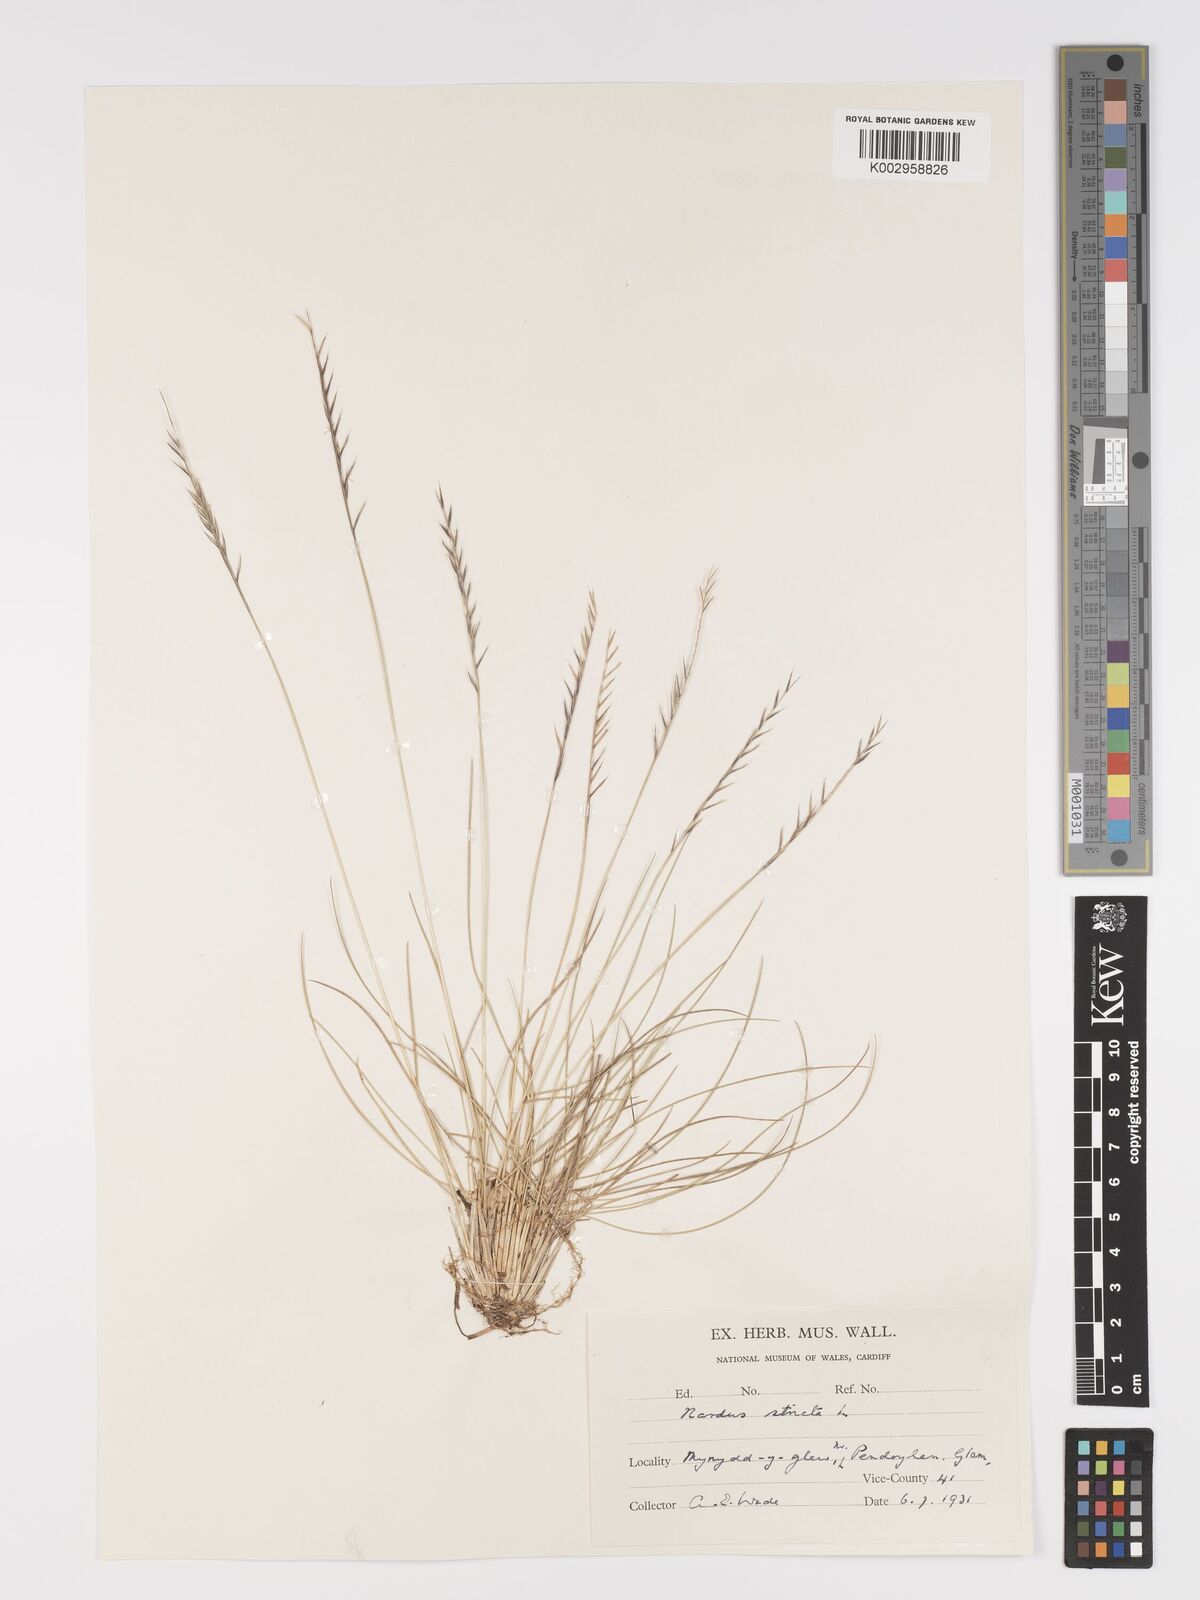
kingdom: Plantae
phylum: Tracheophyta
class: Liliopsida
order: Poales
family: Poaceae
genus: Nardus
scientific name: Nardus stricta
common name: Mat-grass
